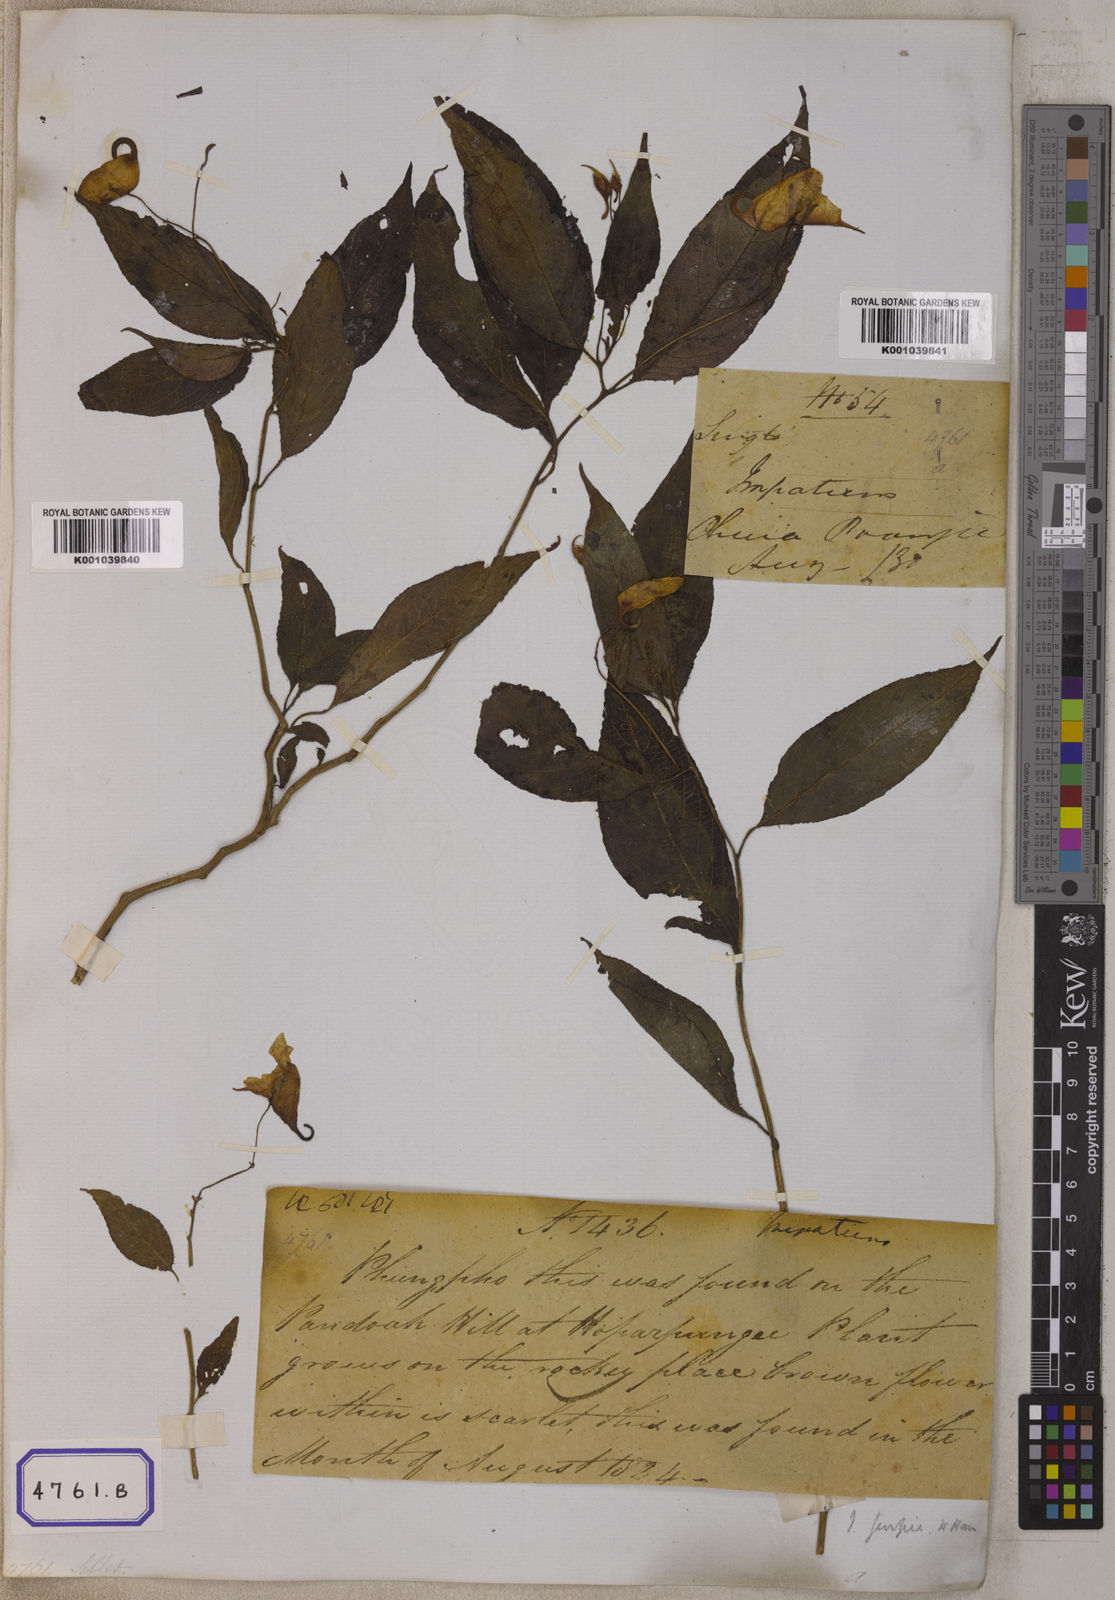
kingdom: Plantae
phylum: Tracheophyta
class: Magnoliopsida
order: Ericales
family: Balsaminaceae
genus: Impatiens
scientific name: Impatiens
